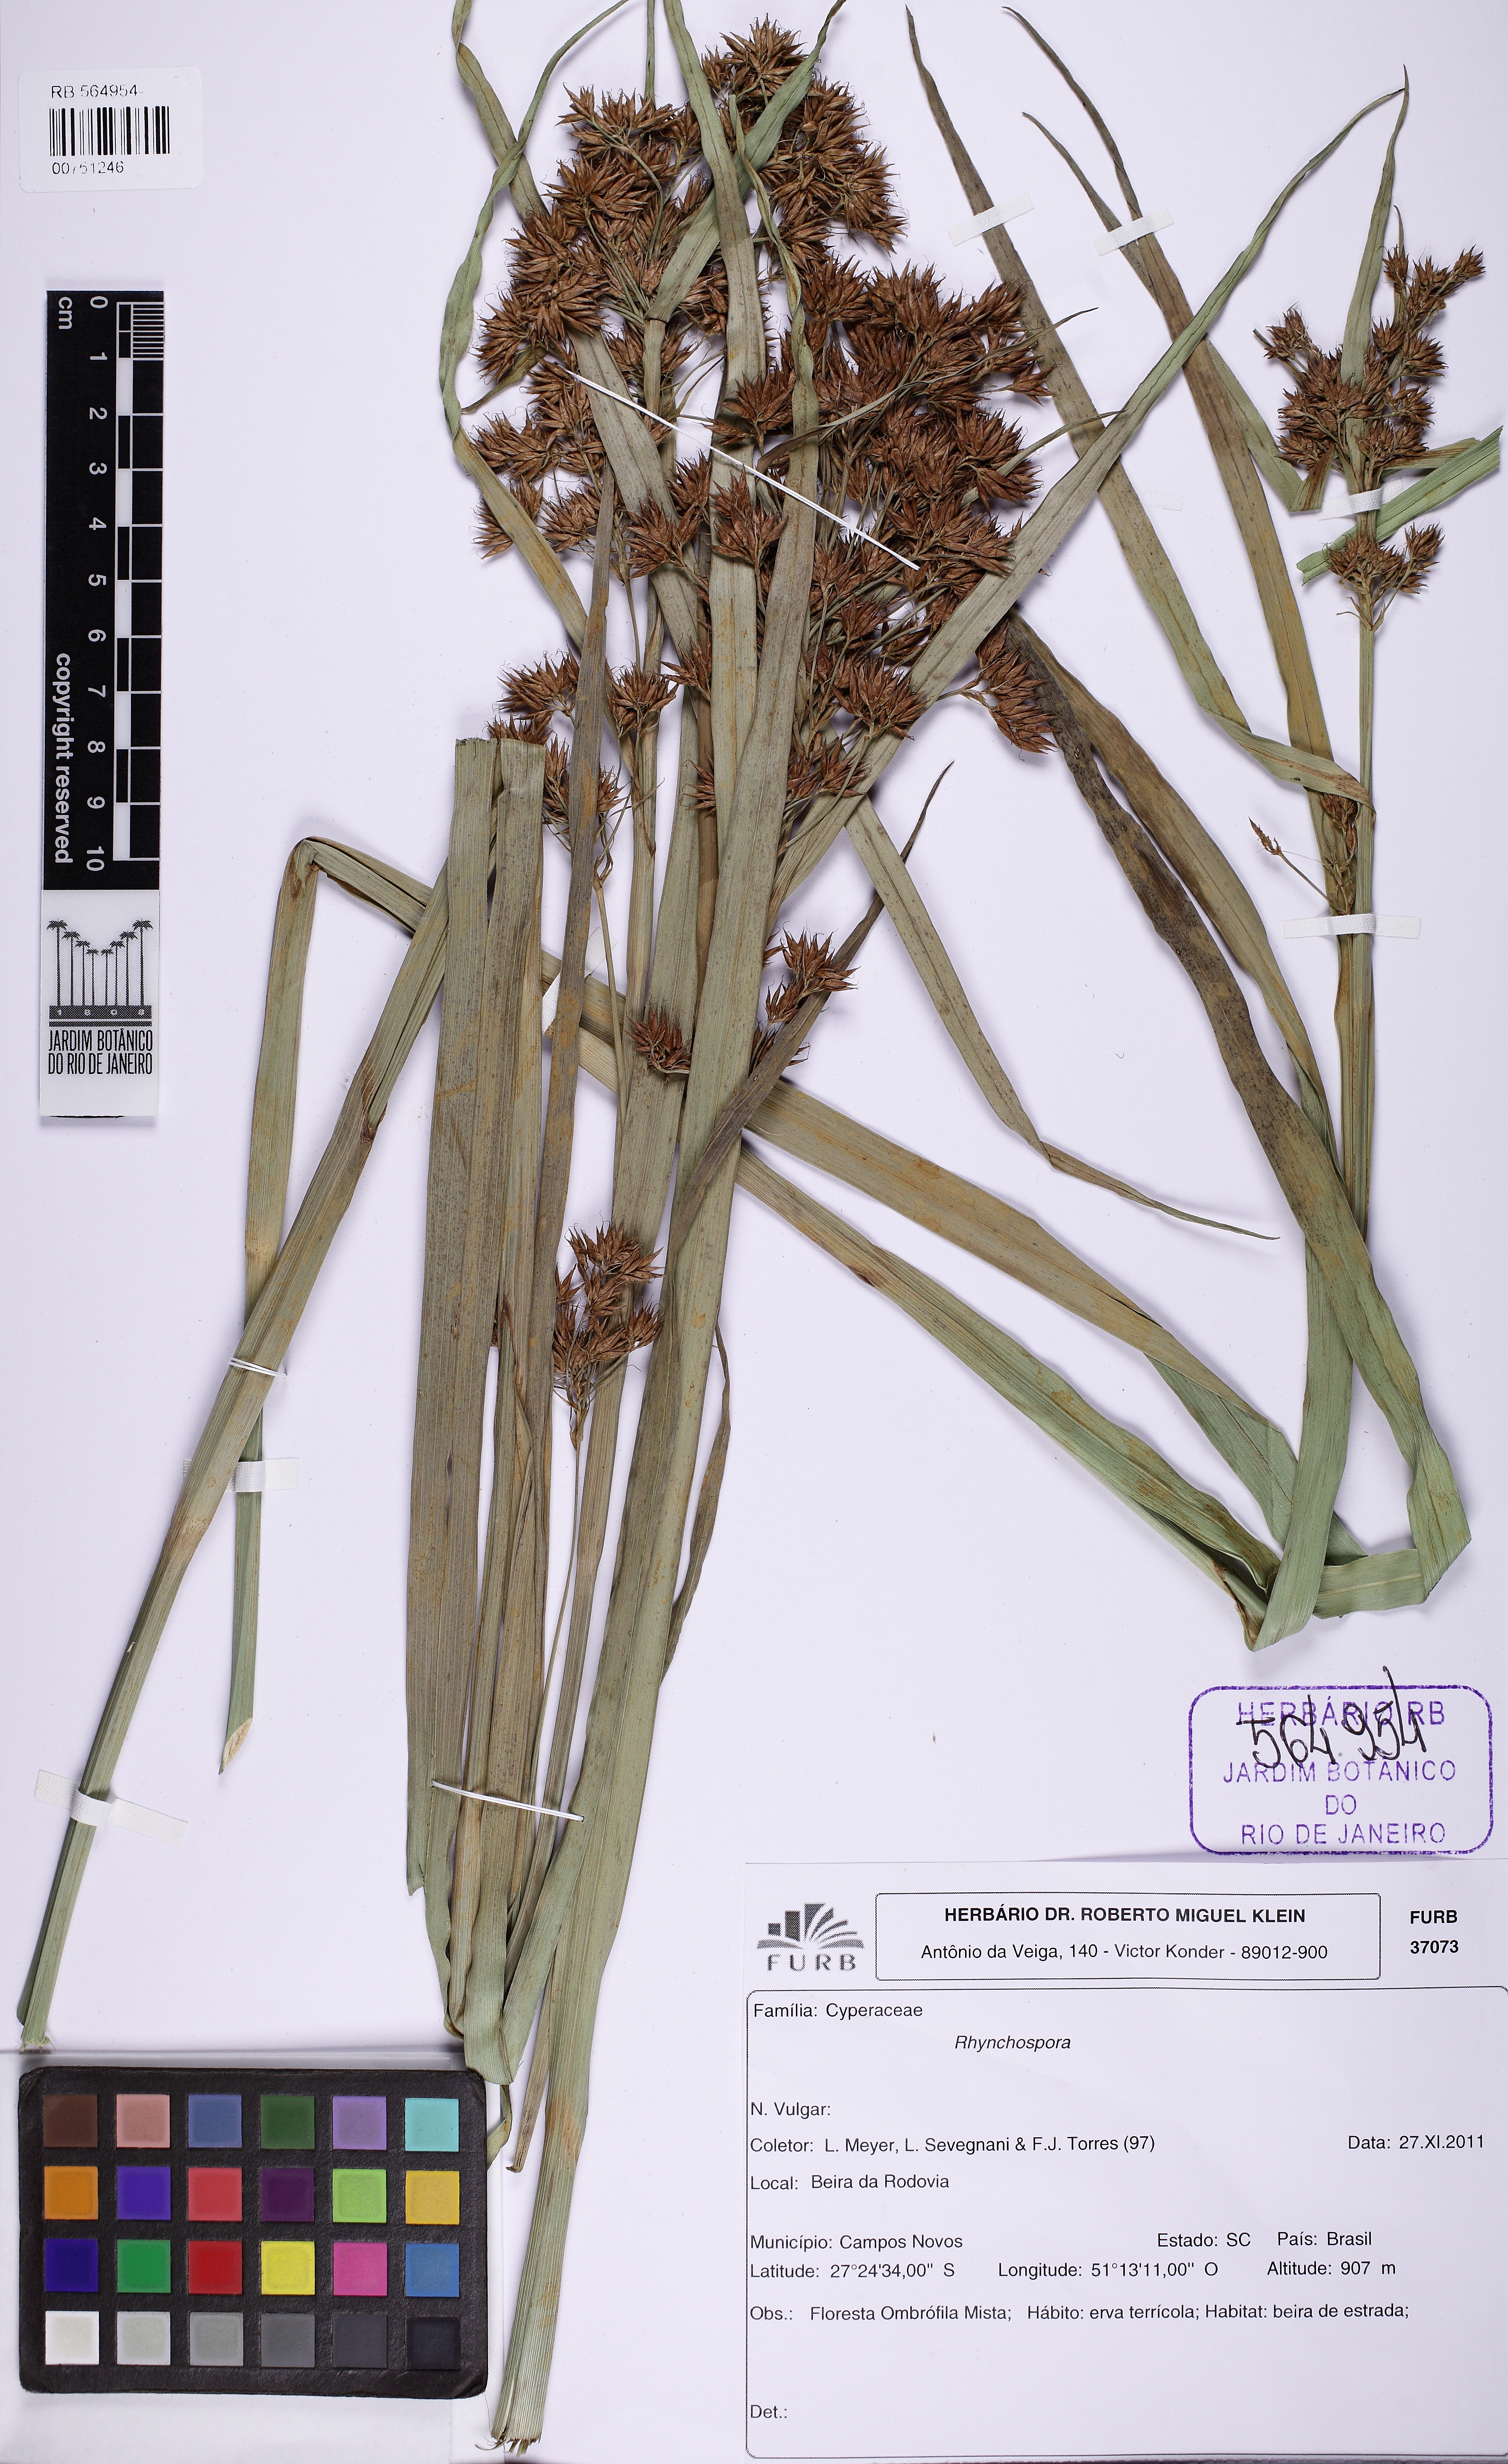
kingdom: Plantae
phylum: Tracheophyta
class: Liliopsida
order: Poales
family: Cyperaceae
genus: Rhynchospora
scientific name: Rhynchospora
